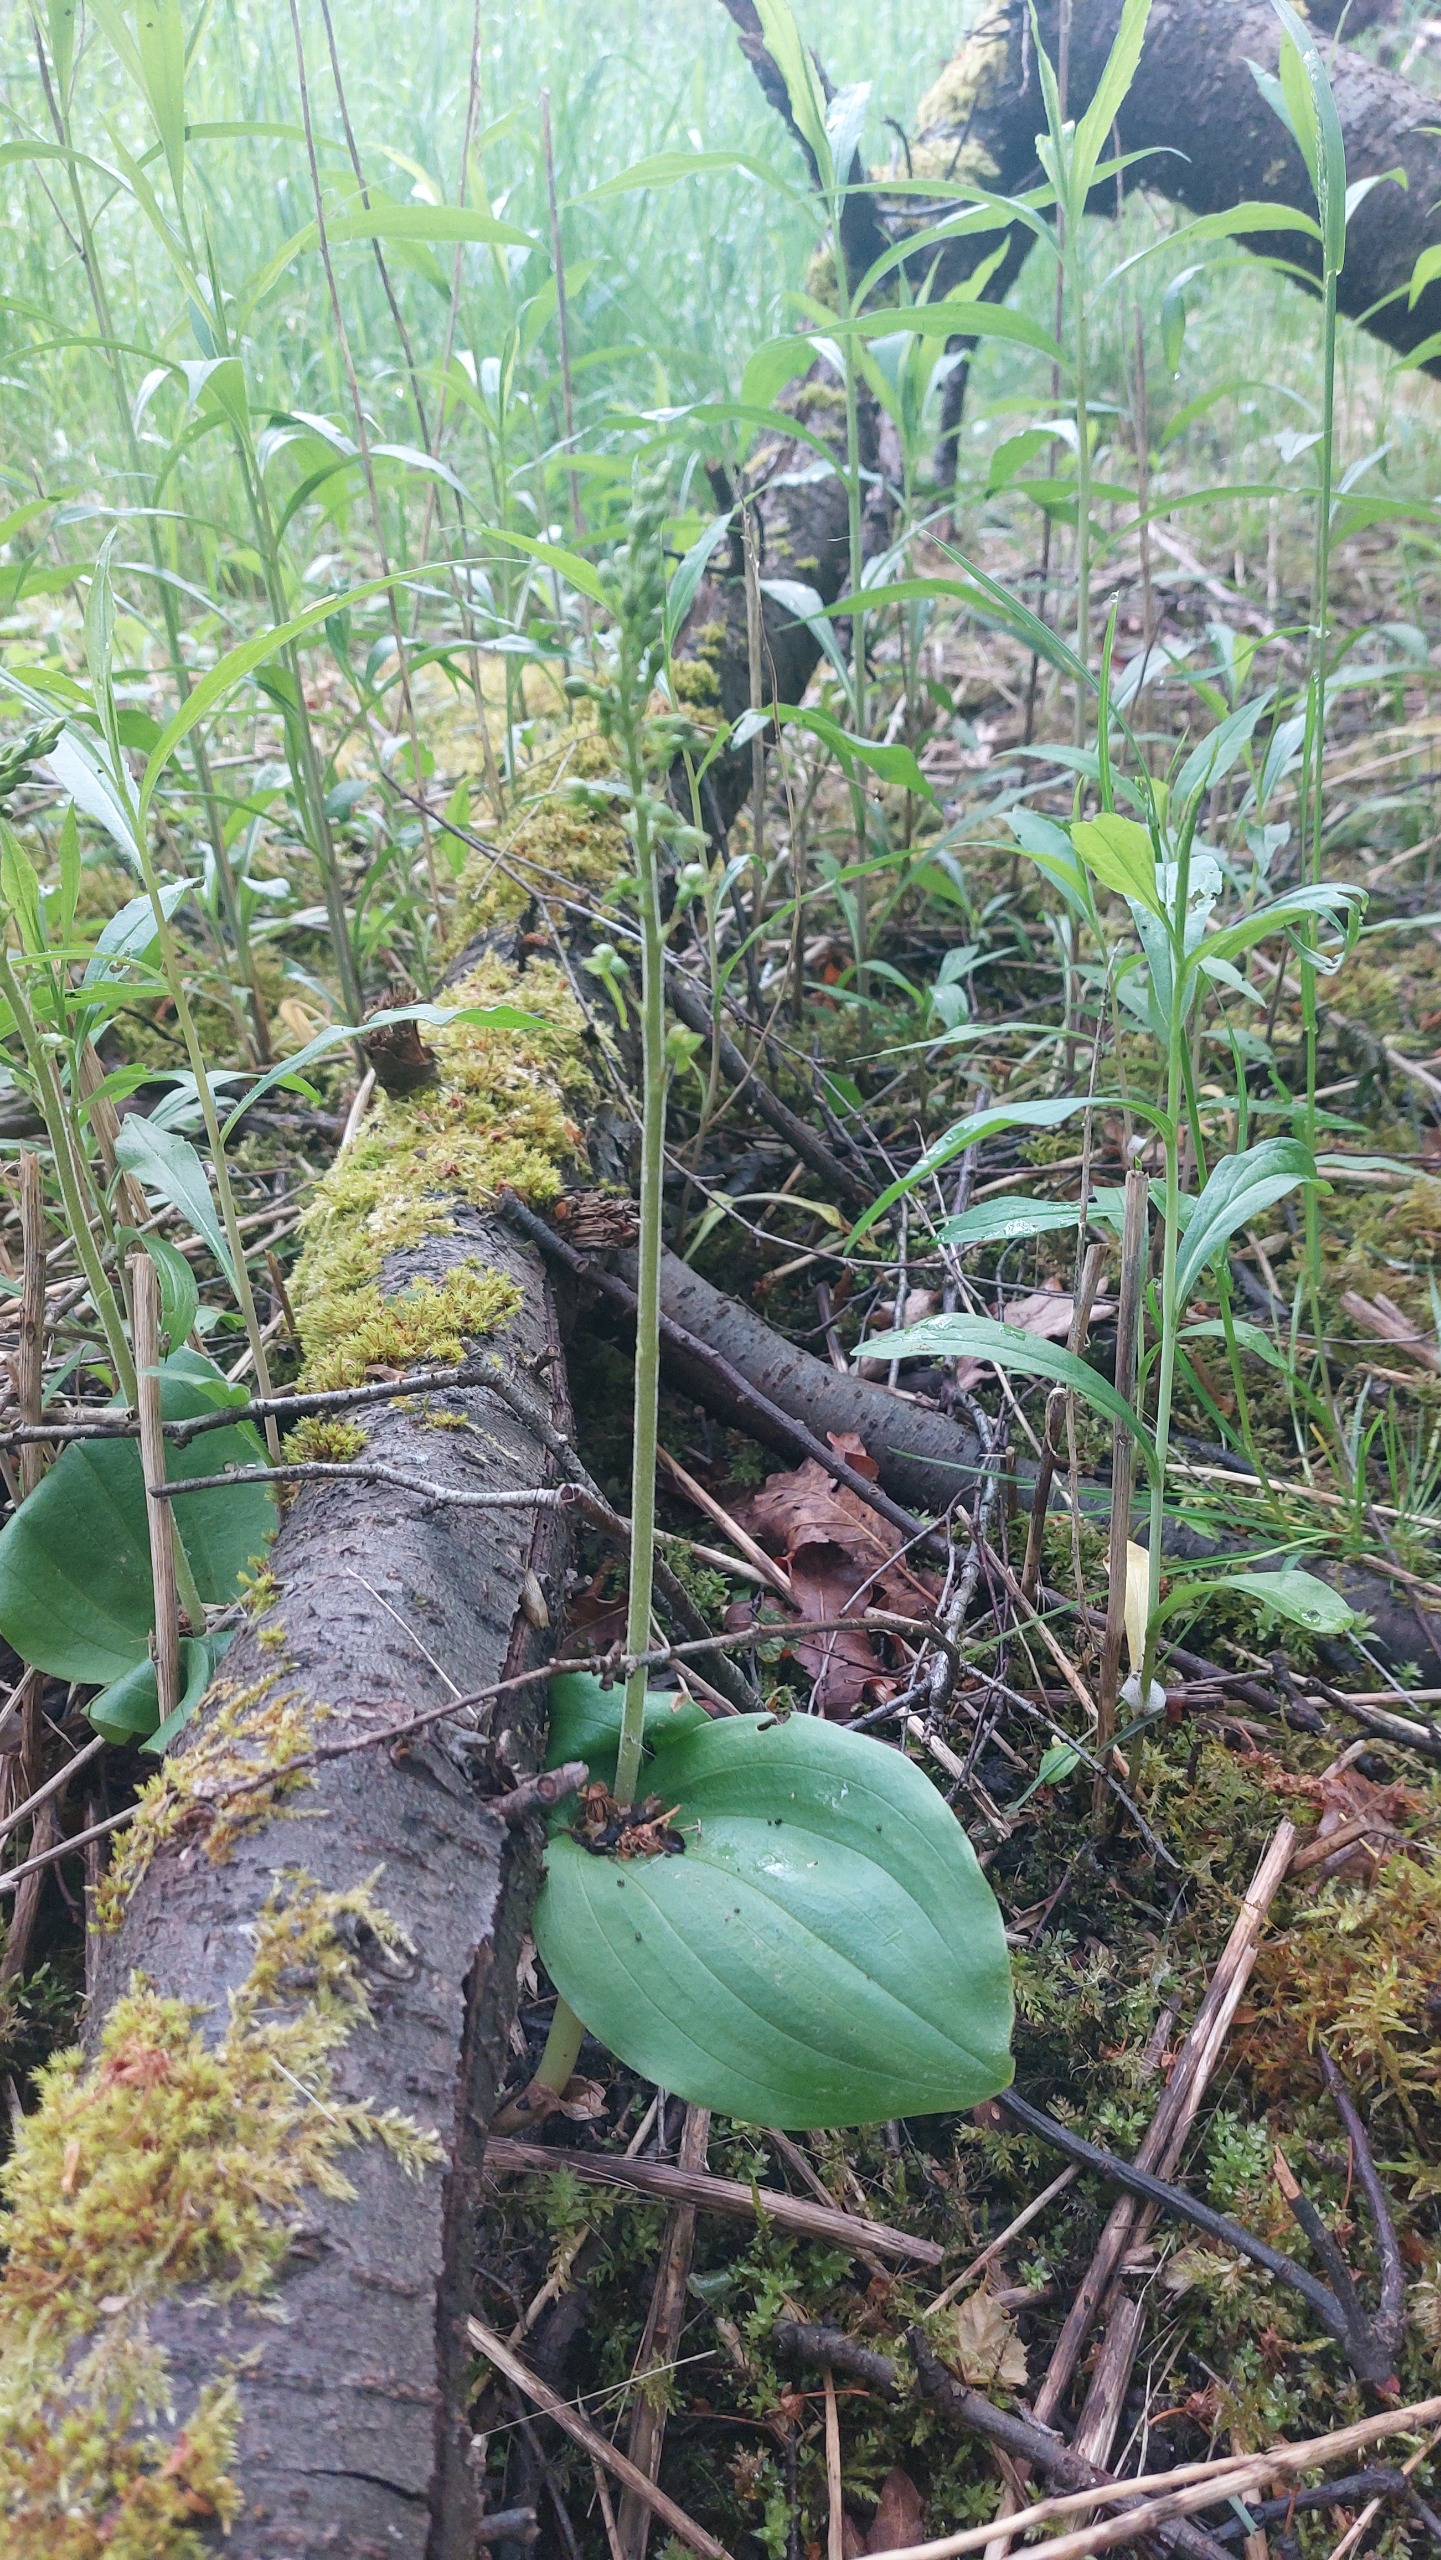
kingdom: Plantae
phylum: Tracheophyta
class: Liliopsida
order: Asparagales
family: Orchidaceae
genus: Neottia
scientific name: Neottia ovata
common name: Ægbladet fliglæbe
